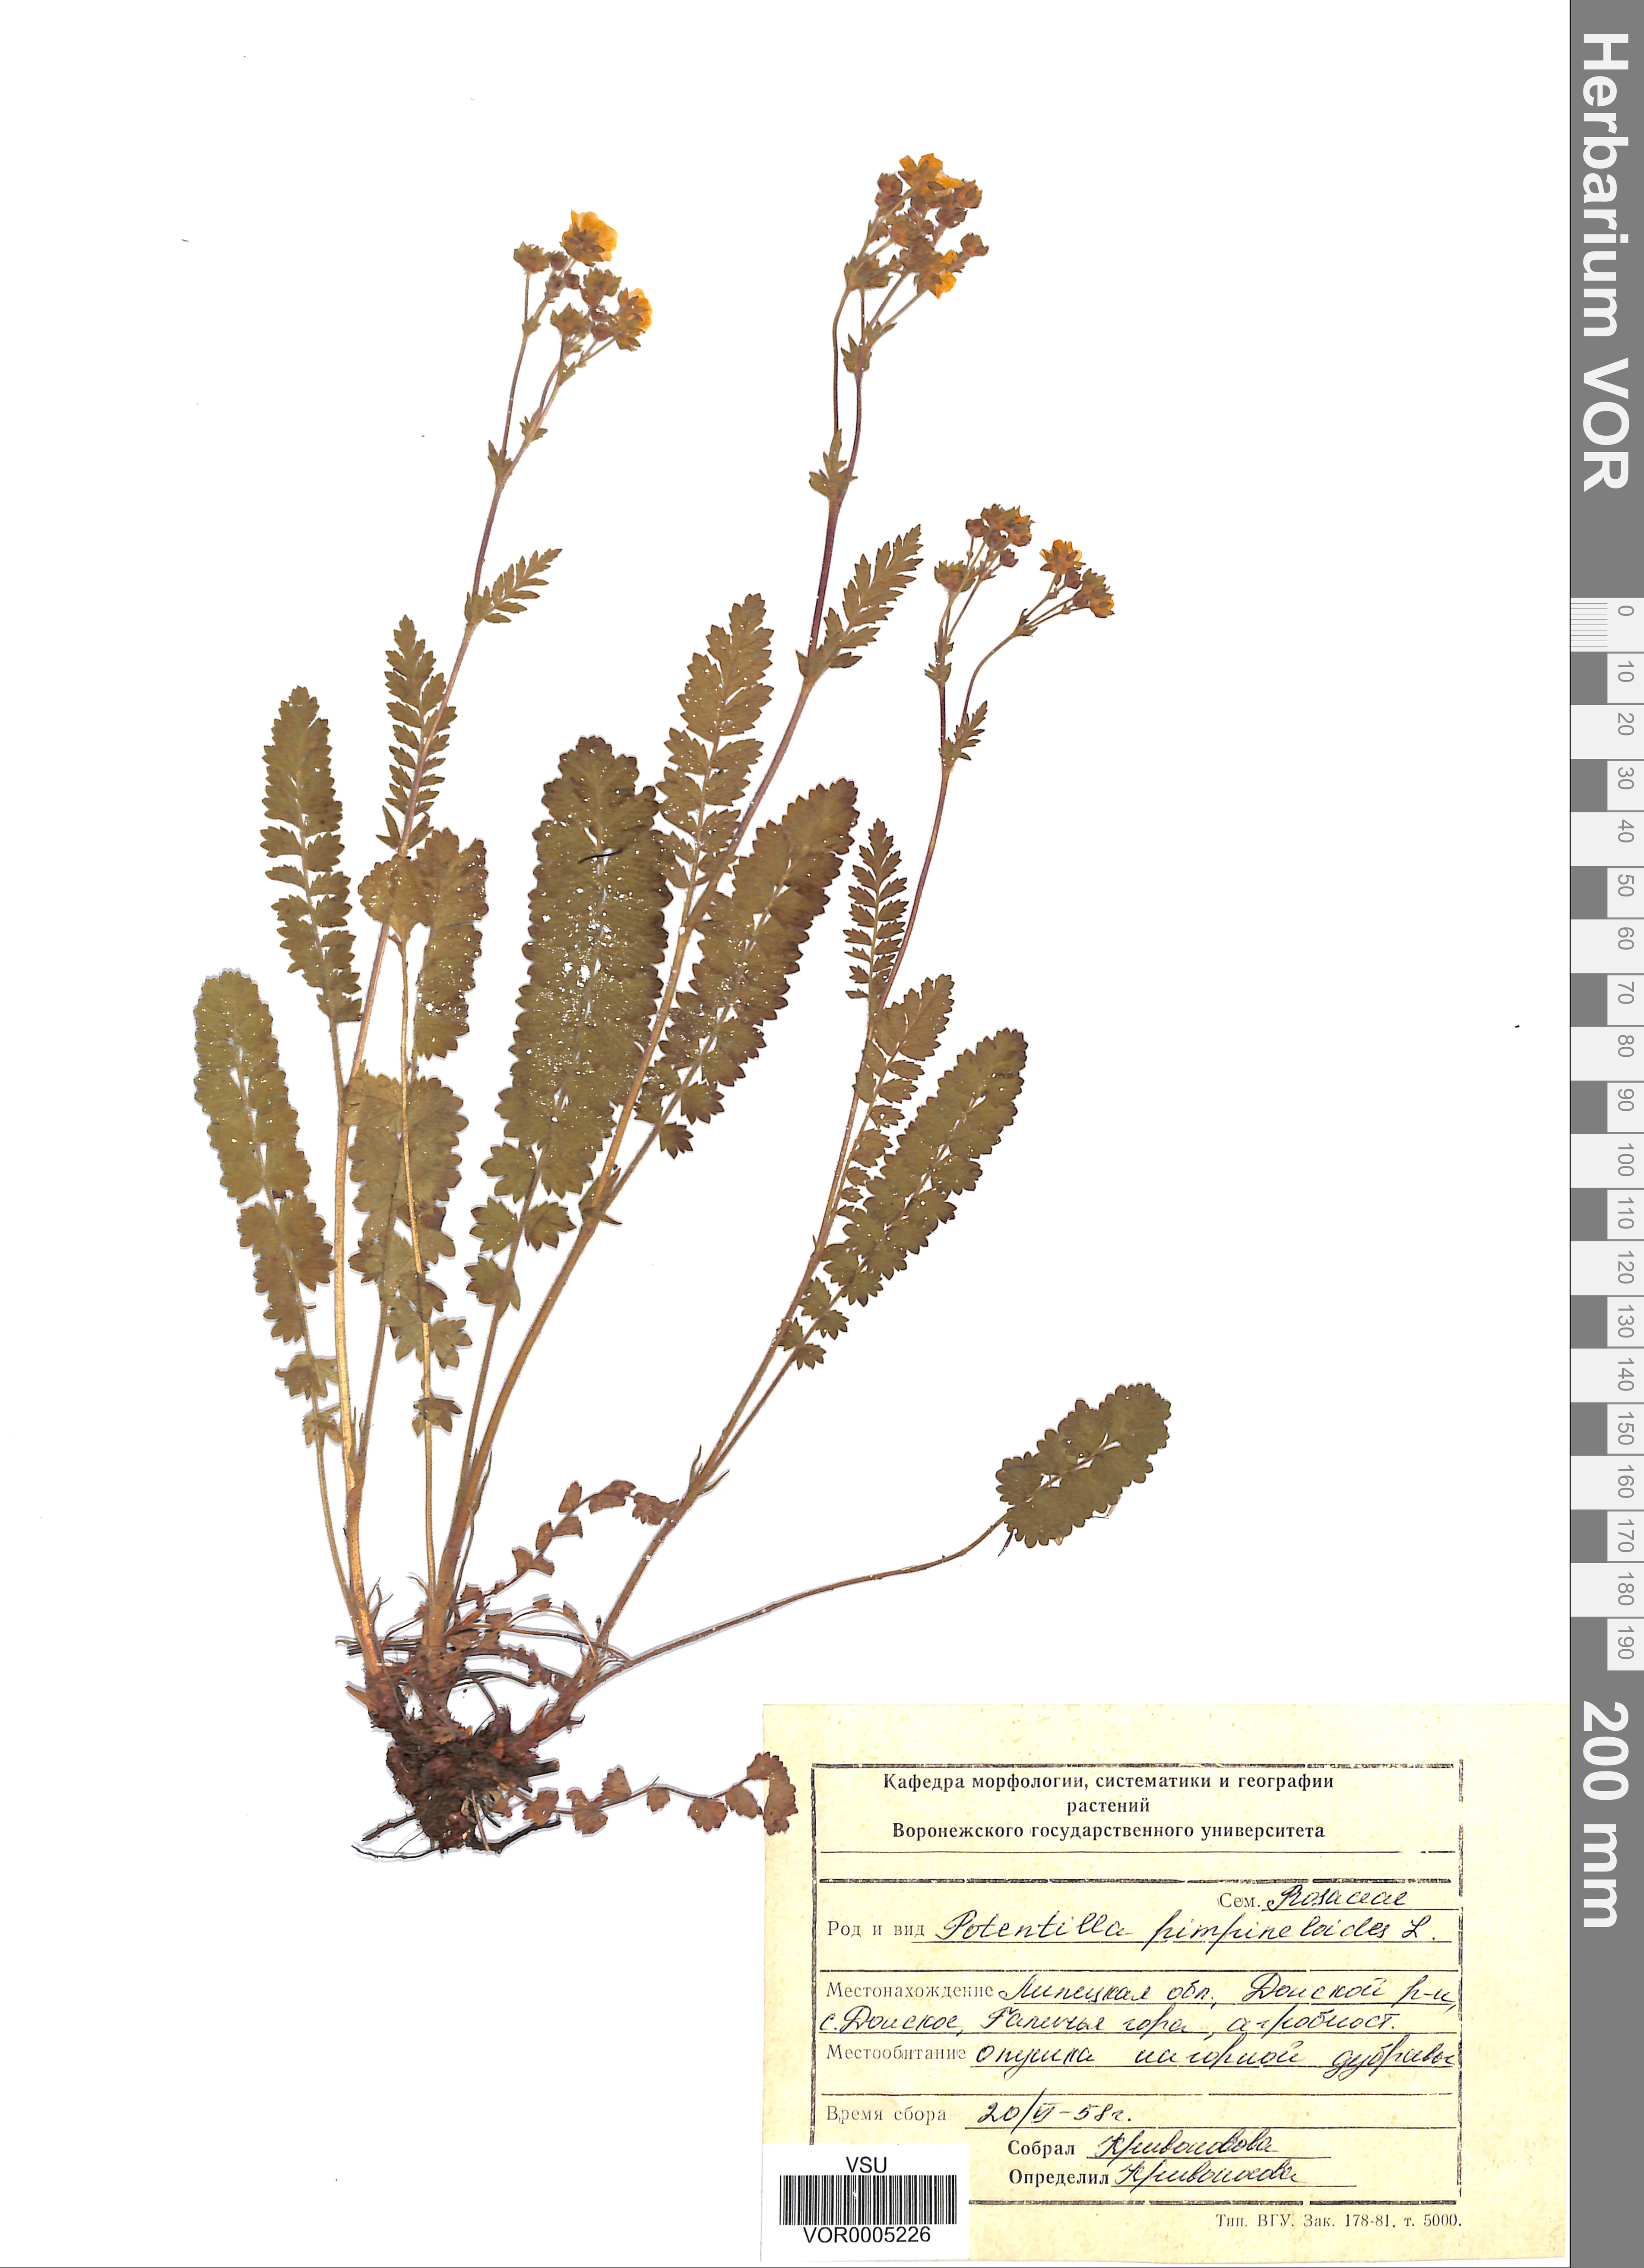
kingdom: Plantae
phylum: Tracheophyta
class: Magnoliopsida
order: Rosales
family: Rosaceae
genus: Potentilla
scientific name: Potentilla pimpinelloides
